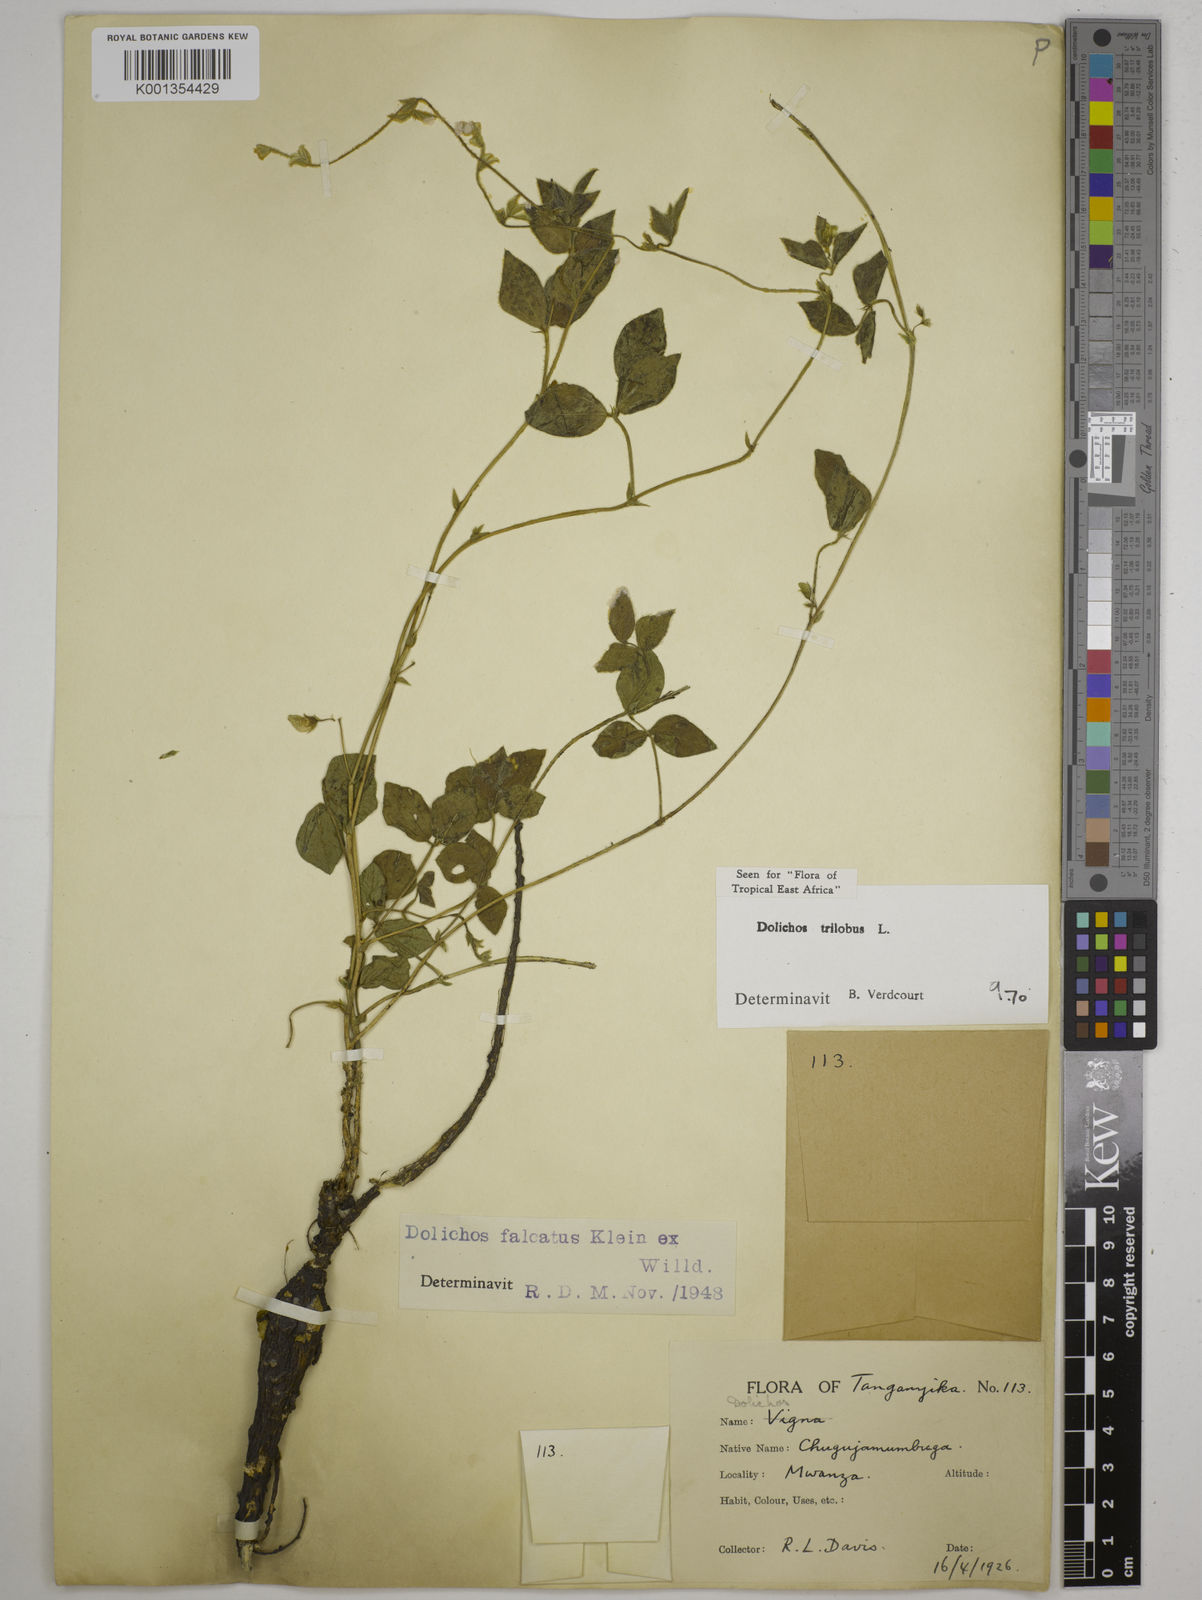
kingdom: Plantae
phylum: Tracheophyta
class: Magnoliopsida
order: Fabales
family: Fabaceae
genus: Dolichos
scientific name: Dolichos
